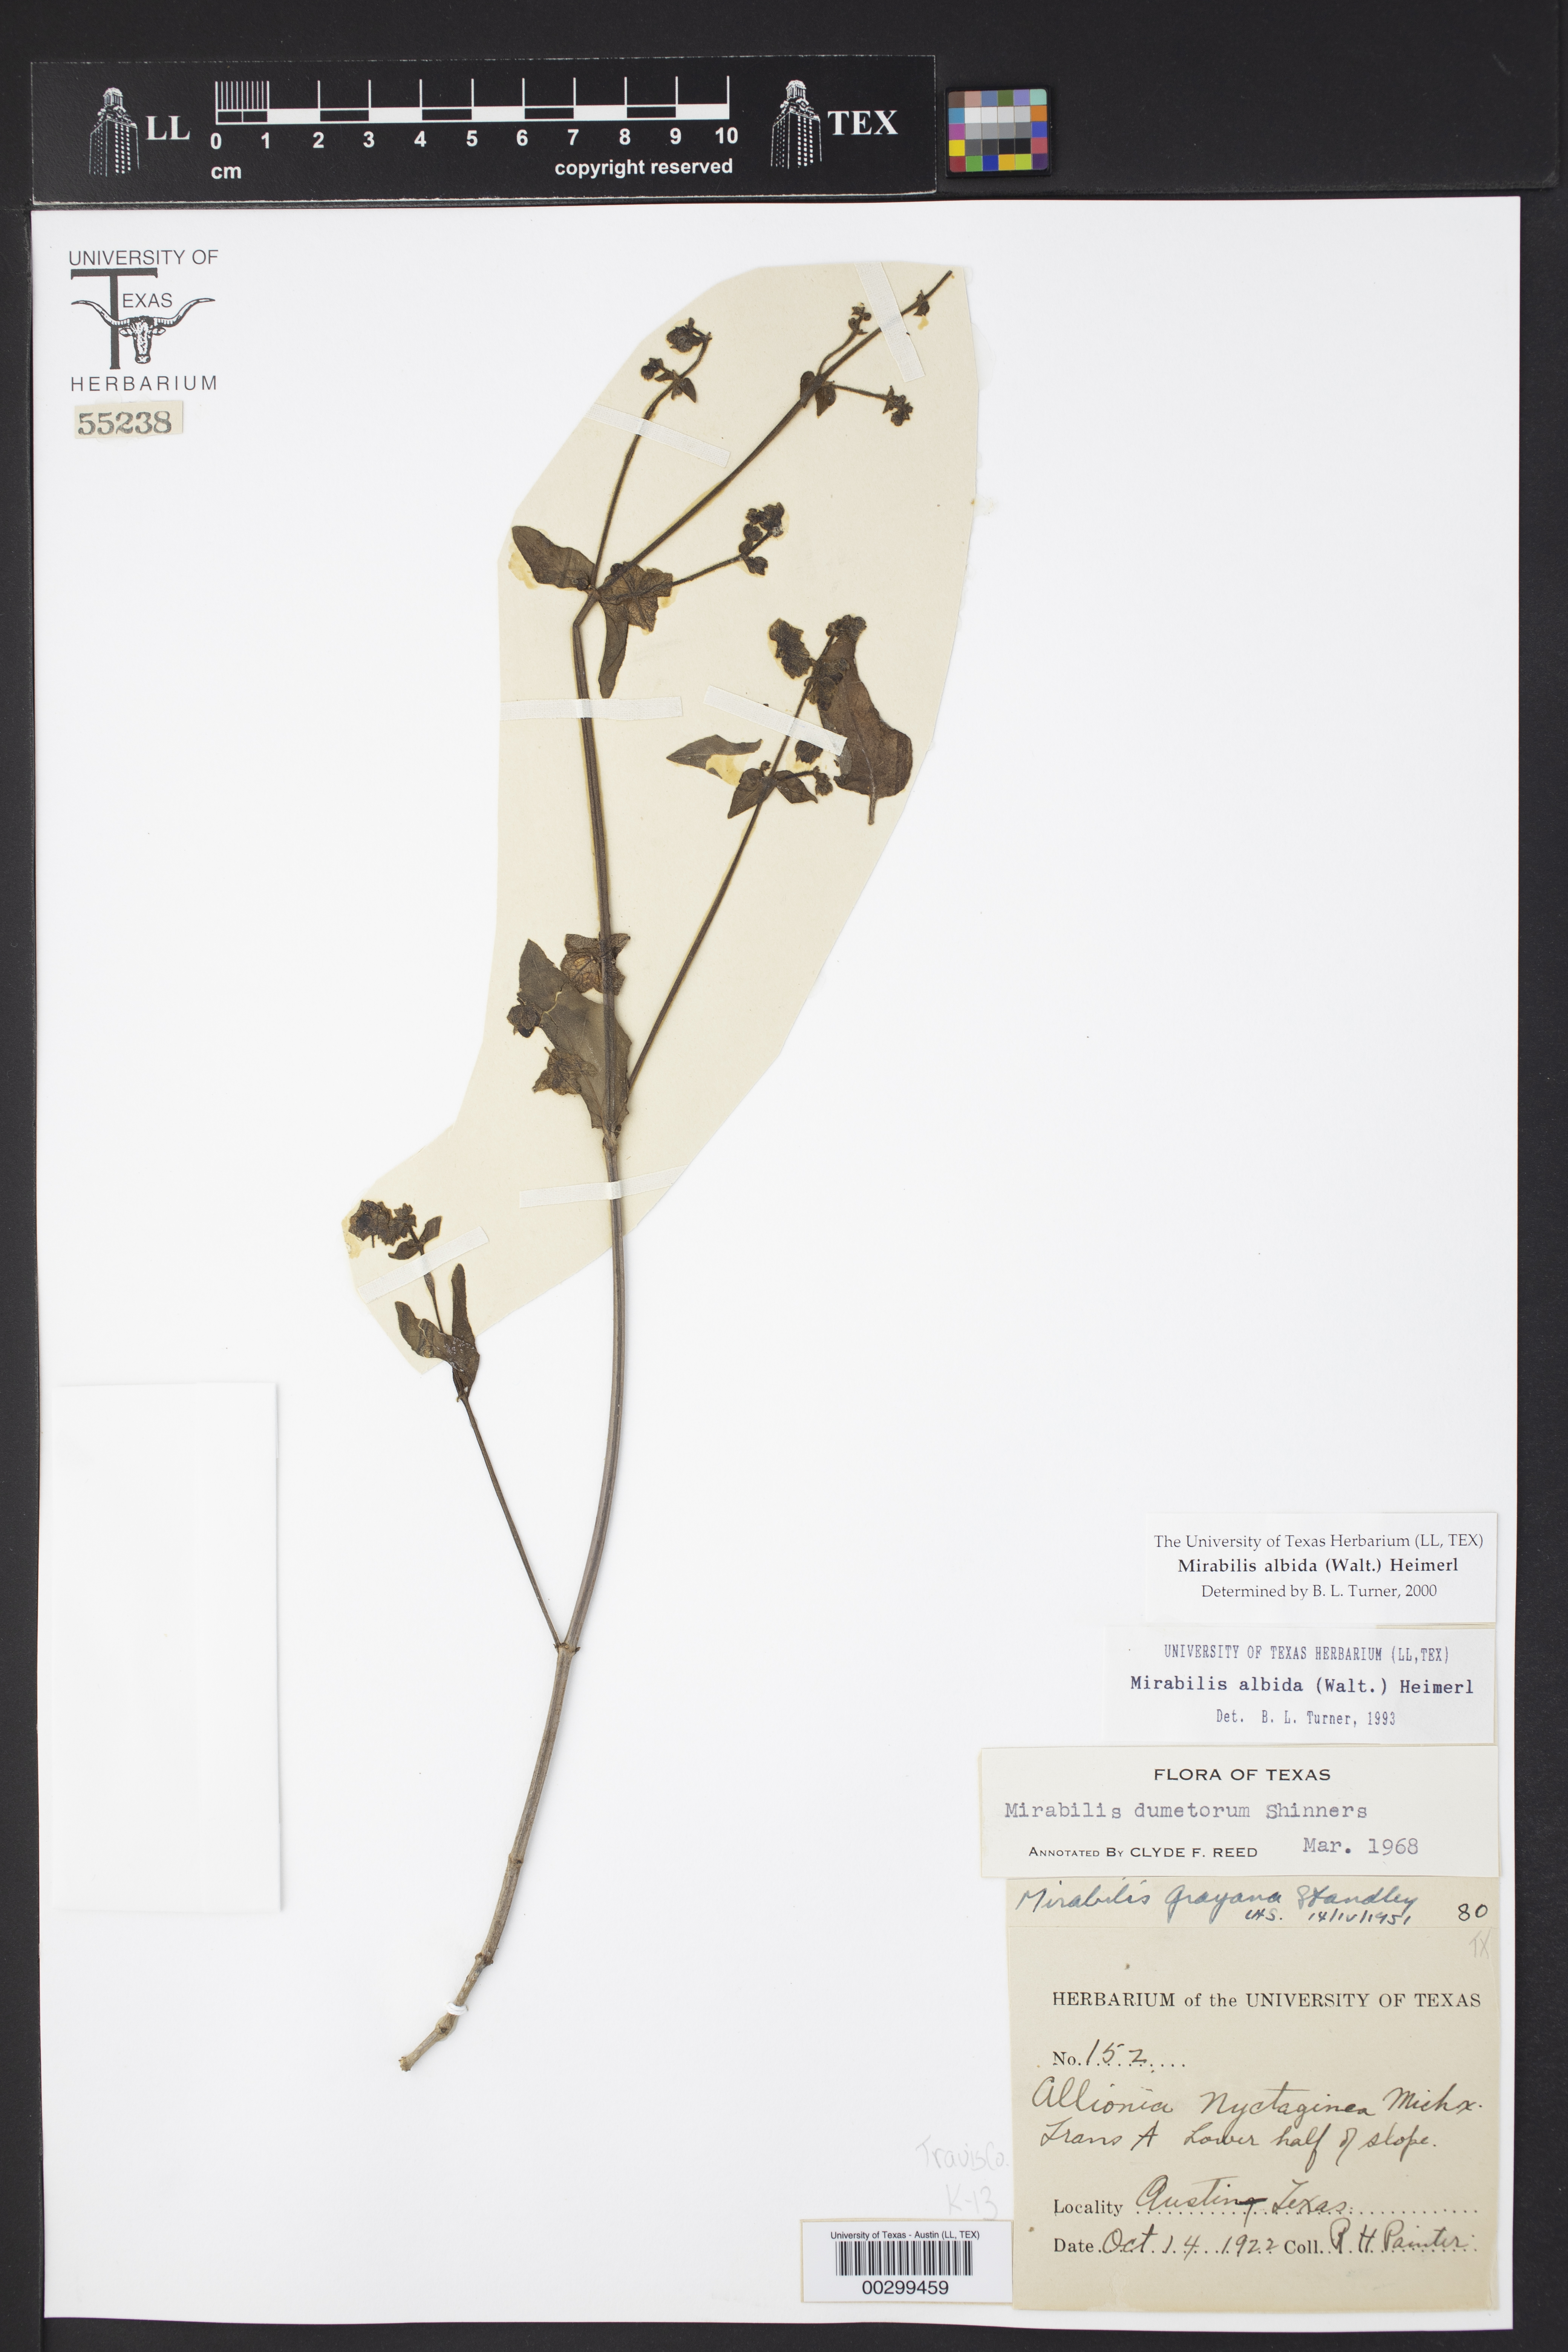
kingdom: Plantae
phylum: Tracheophyta
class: Magnoliopsida
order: Caryophyllales
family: Nyctaginaceae
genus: Mirabilis
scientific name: Mirabilis albida
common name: Hairy four-o'clock
